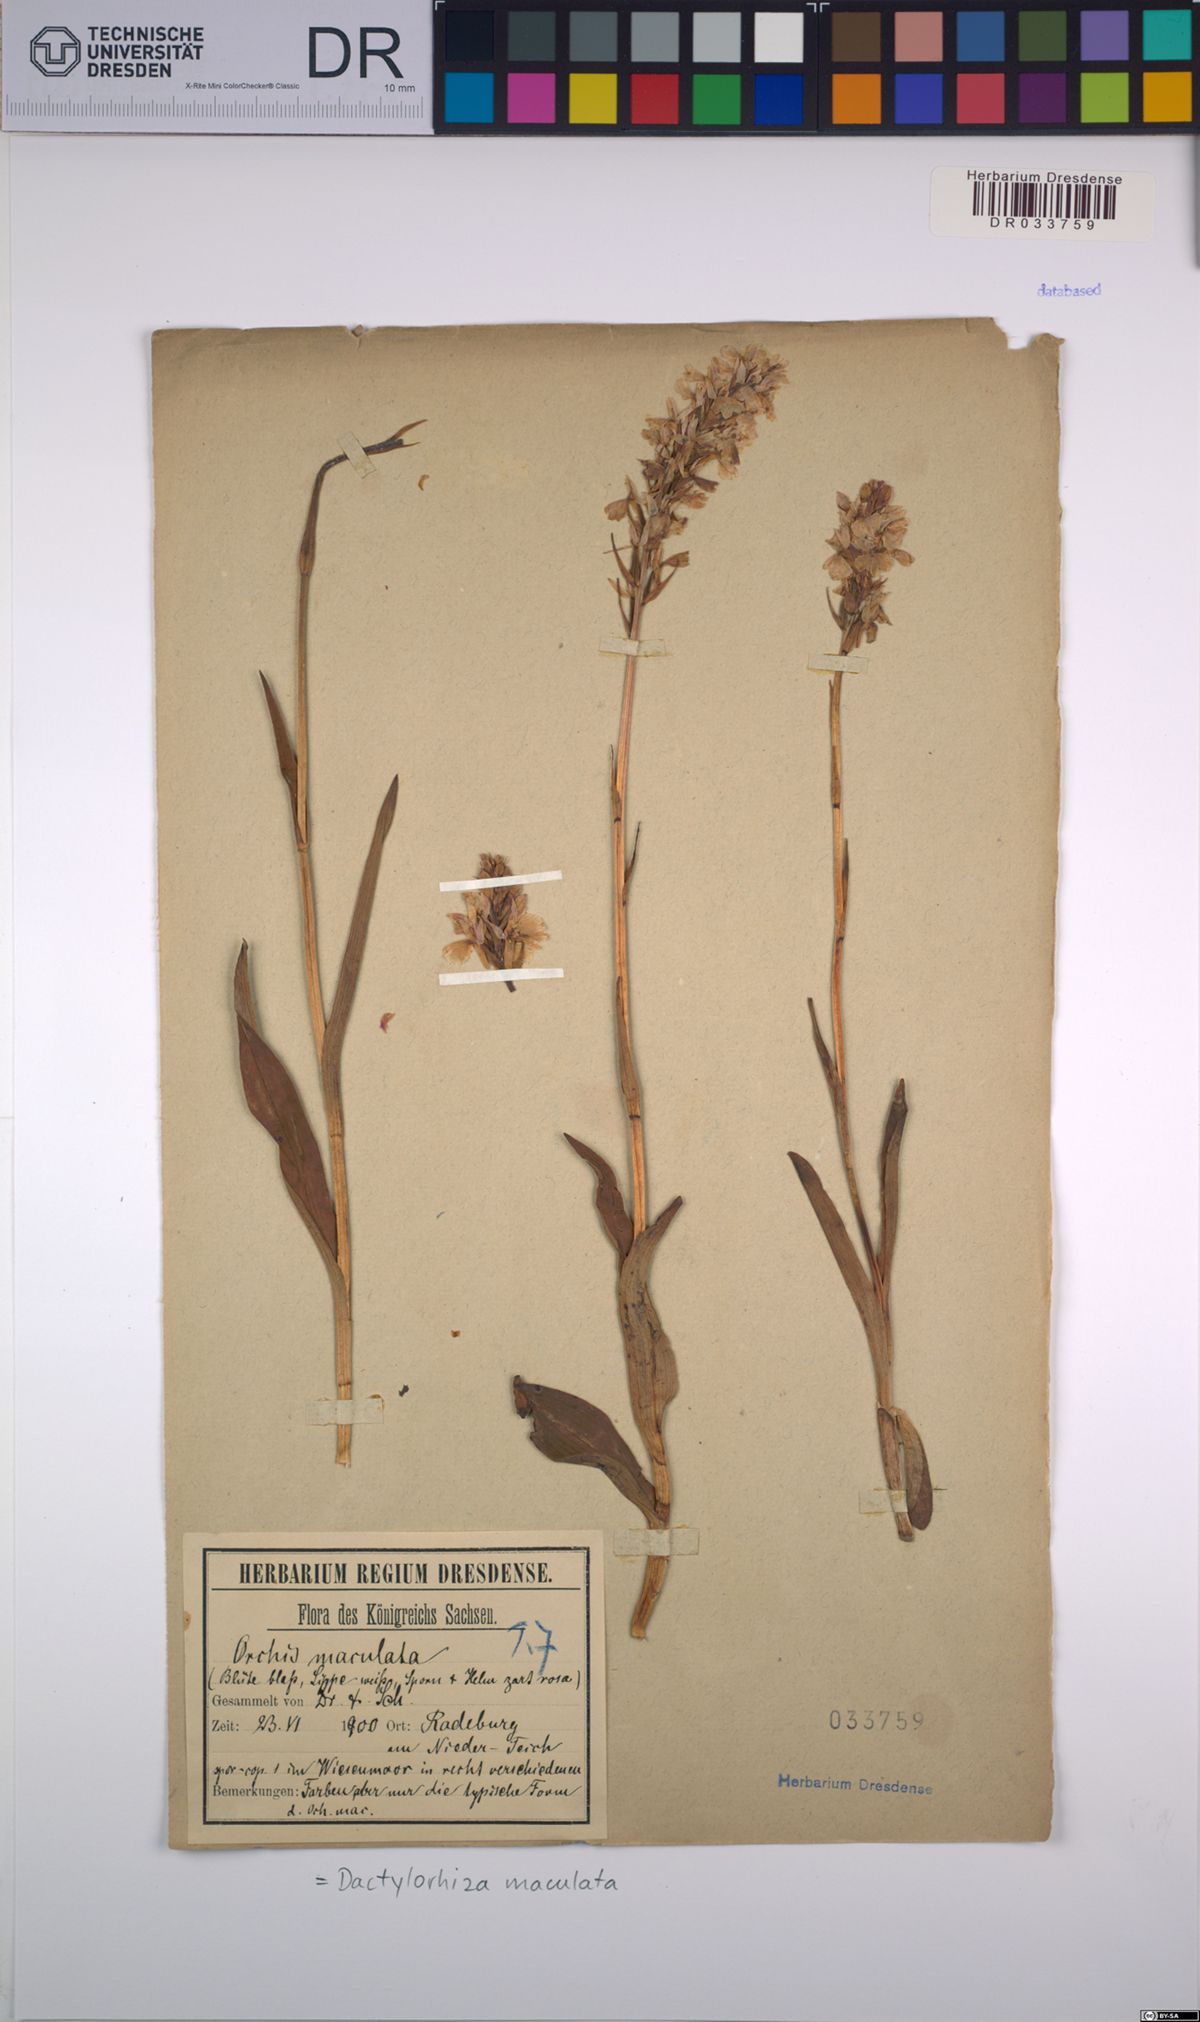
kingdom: Plantae
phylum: Tracheophyta
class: Liliopsida
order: Asparagales
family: Orchidaceae
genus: Dactylorhiza
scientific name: Dactylorhiza maculata
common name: Heath spotted-orchid
